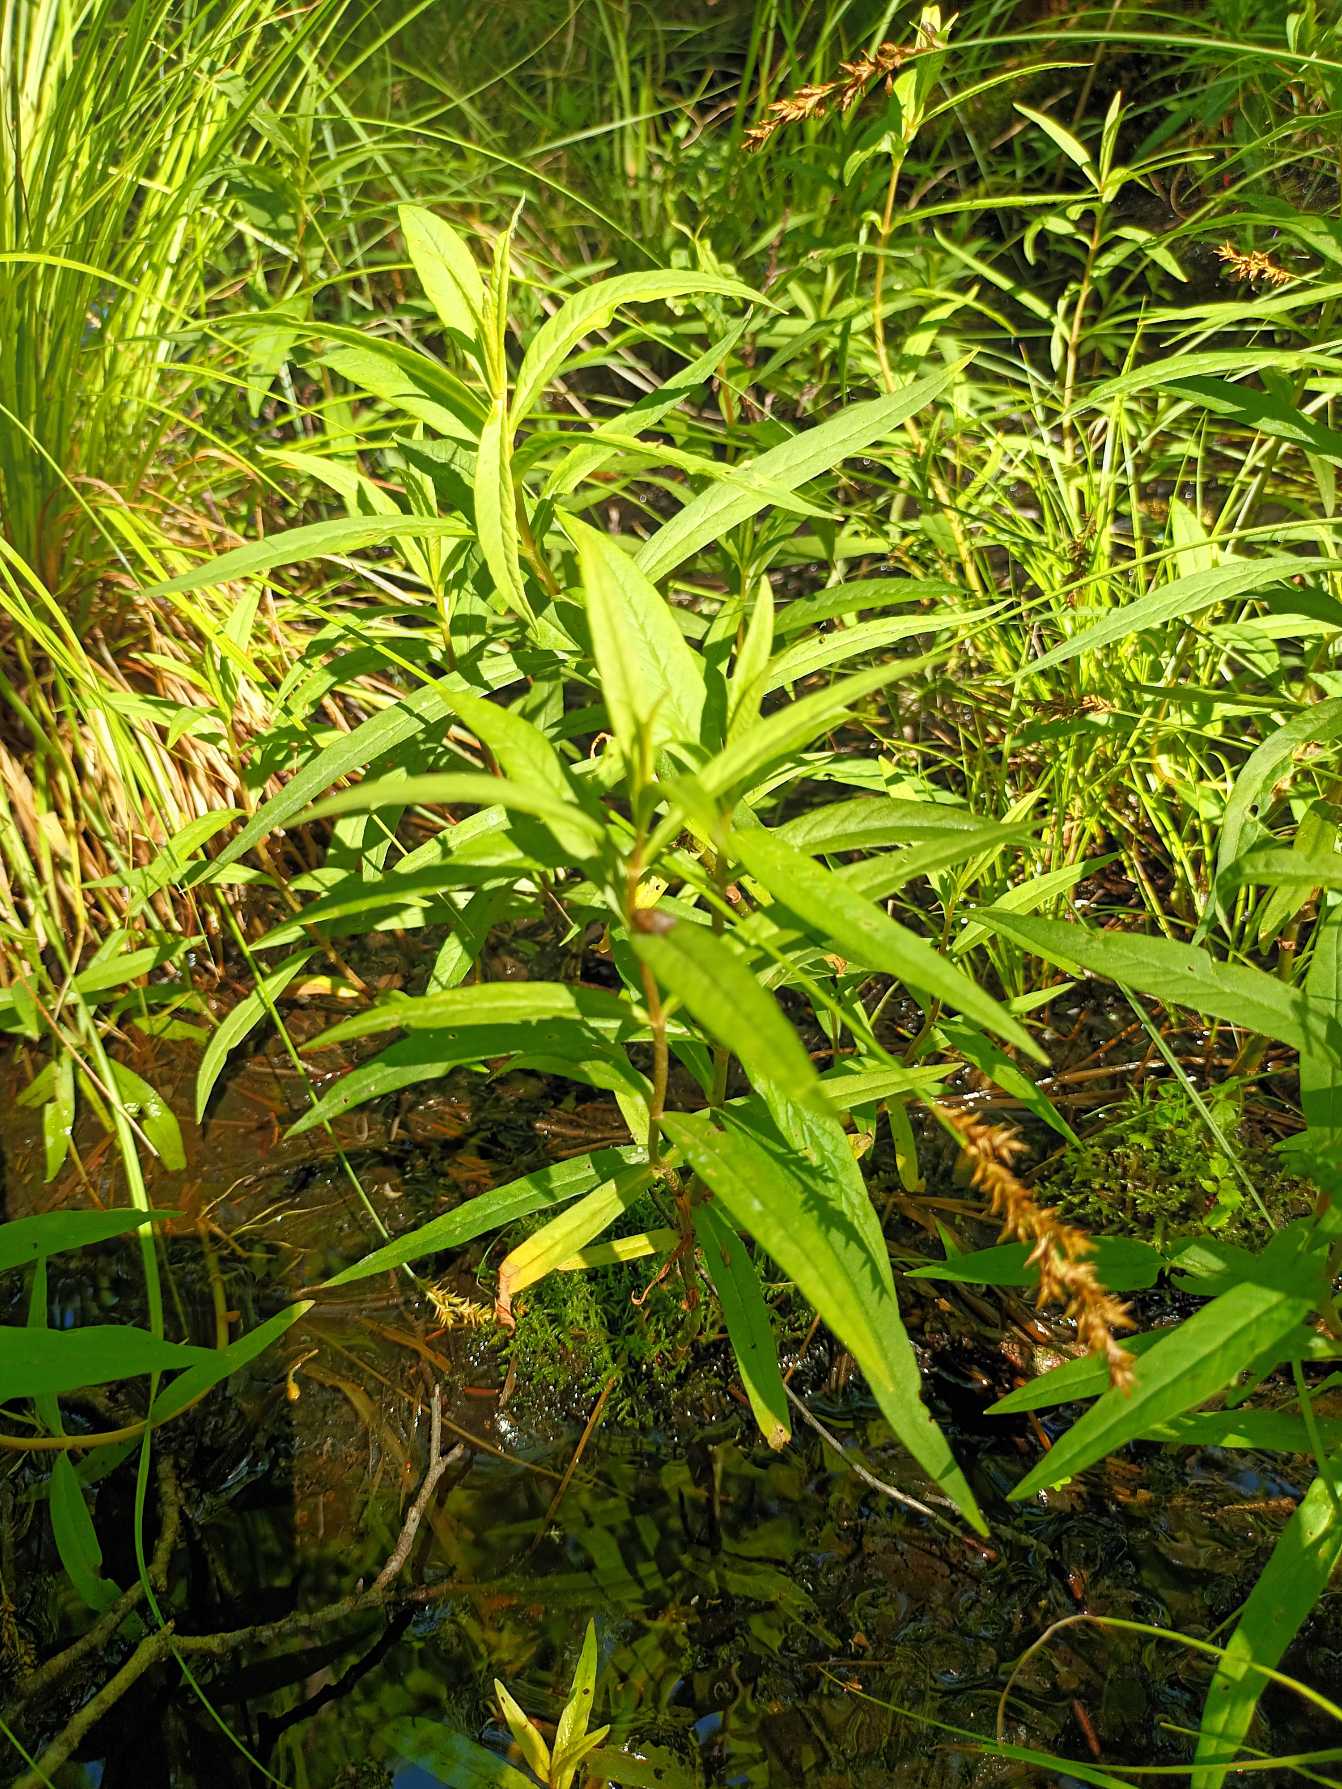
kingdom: Plantae
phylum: Tracheophyta
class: Magnoliopsida
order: Ericales
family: Primulaceae
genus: Lysimachia
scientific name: Lysimachia thyrsiflora
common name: Dusk-fredløs
